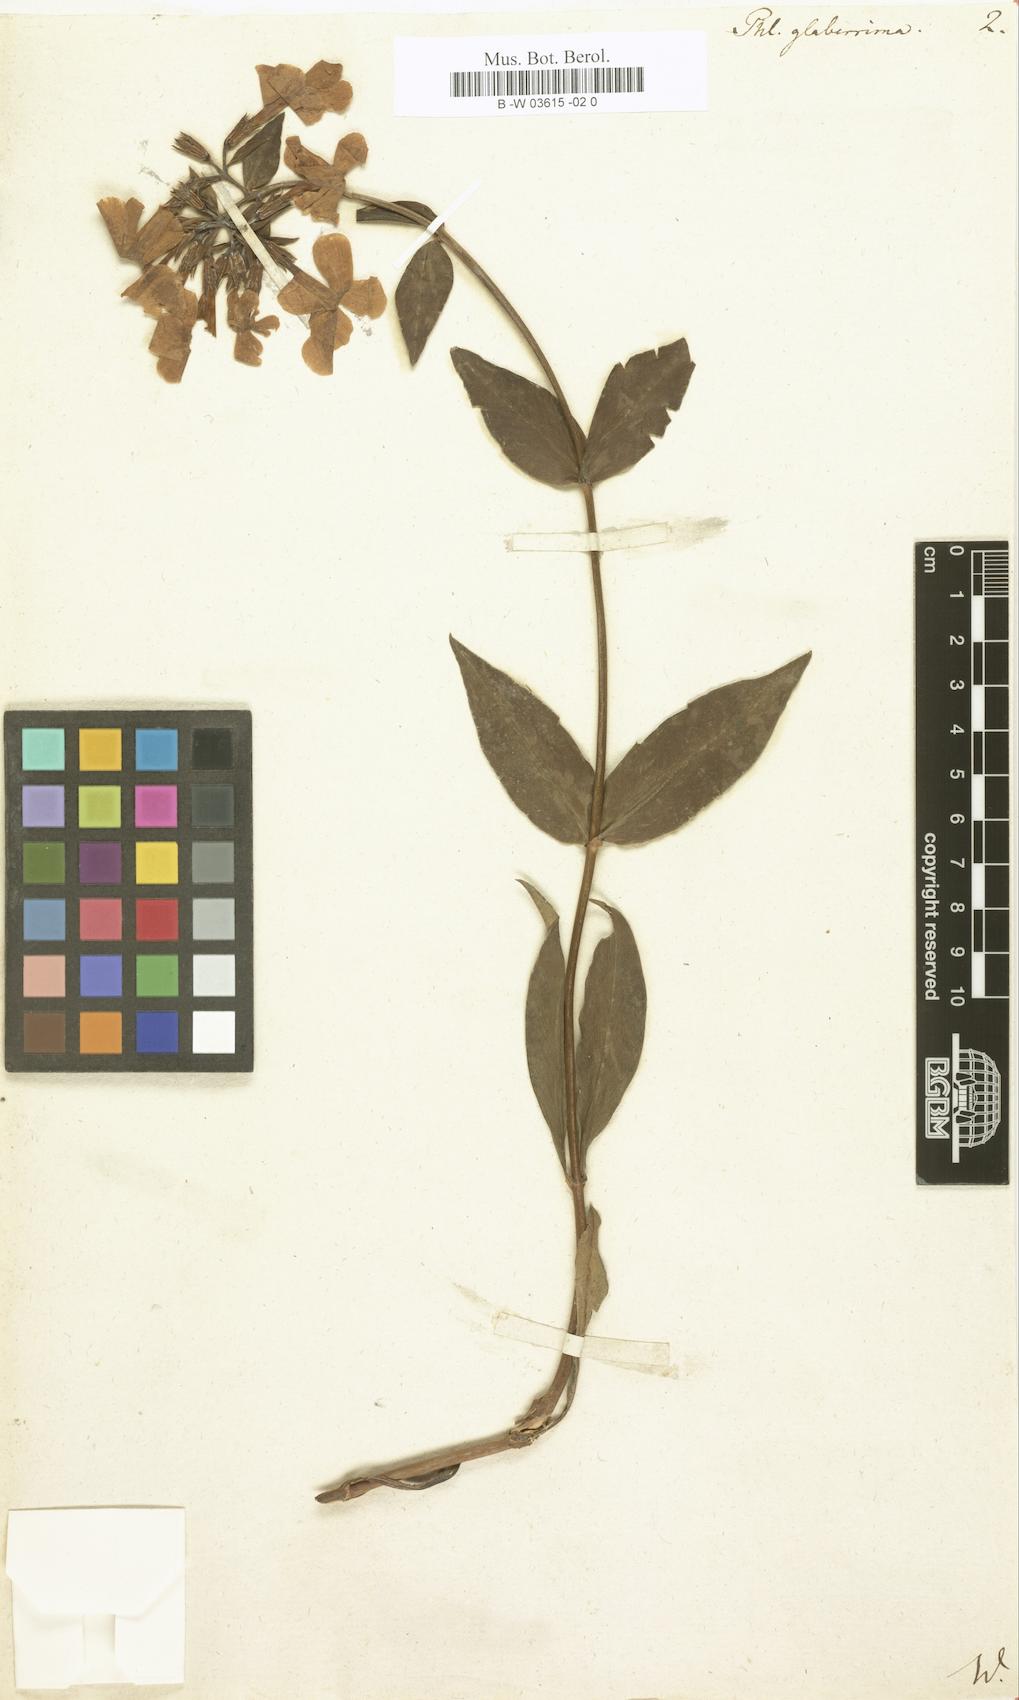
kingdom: Plantae
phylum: Tracheophyta
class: Magnoliopsida
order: Ericales
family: Polemoniaceae
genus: Phlox
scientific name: Phlox glaberrima
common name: Smooth phlox
